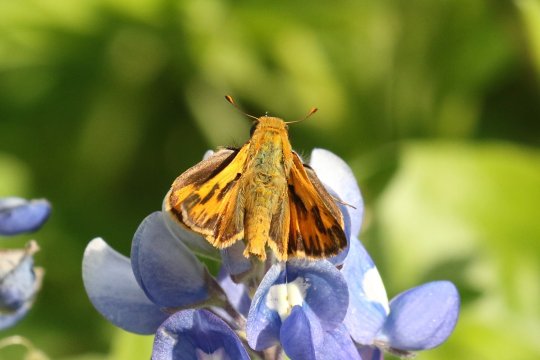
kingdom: Animalia
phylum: Arthropoda
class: Insecta
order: Lepidoptera
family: Hesperiidae
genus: Hylephila
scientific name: Hylephila phyleus
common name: Fiery Skipper
